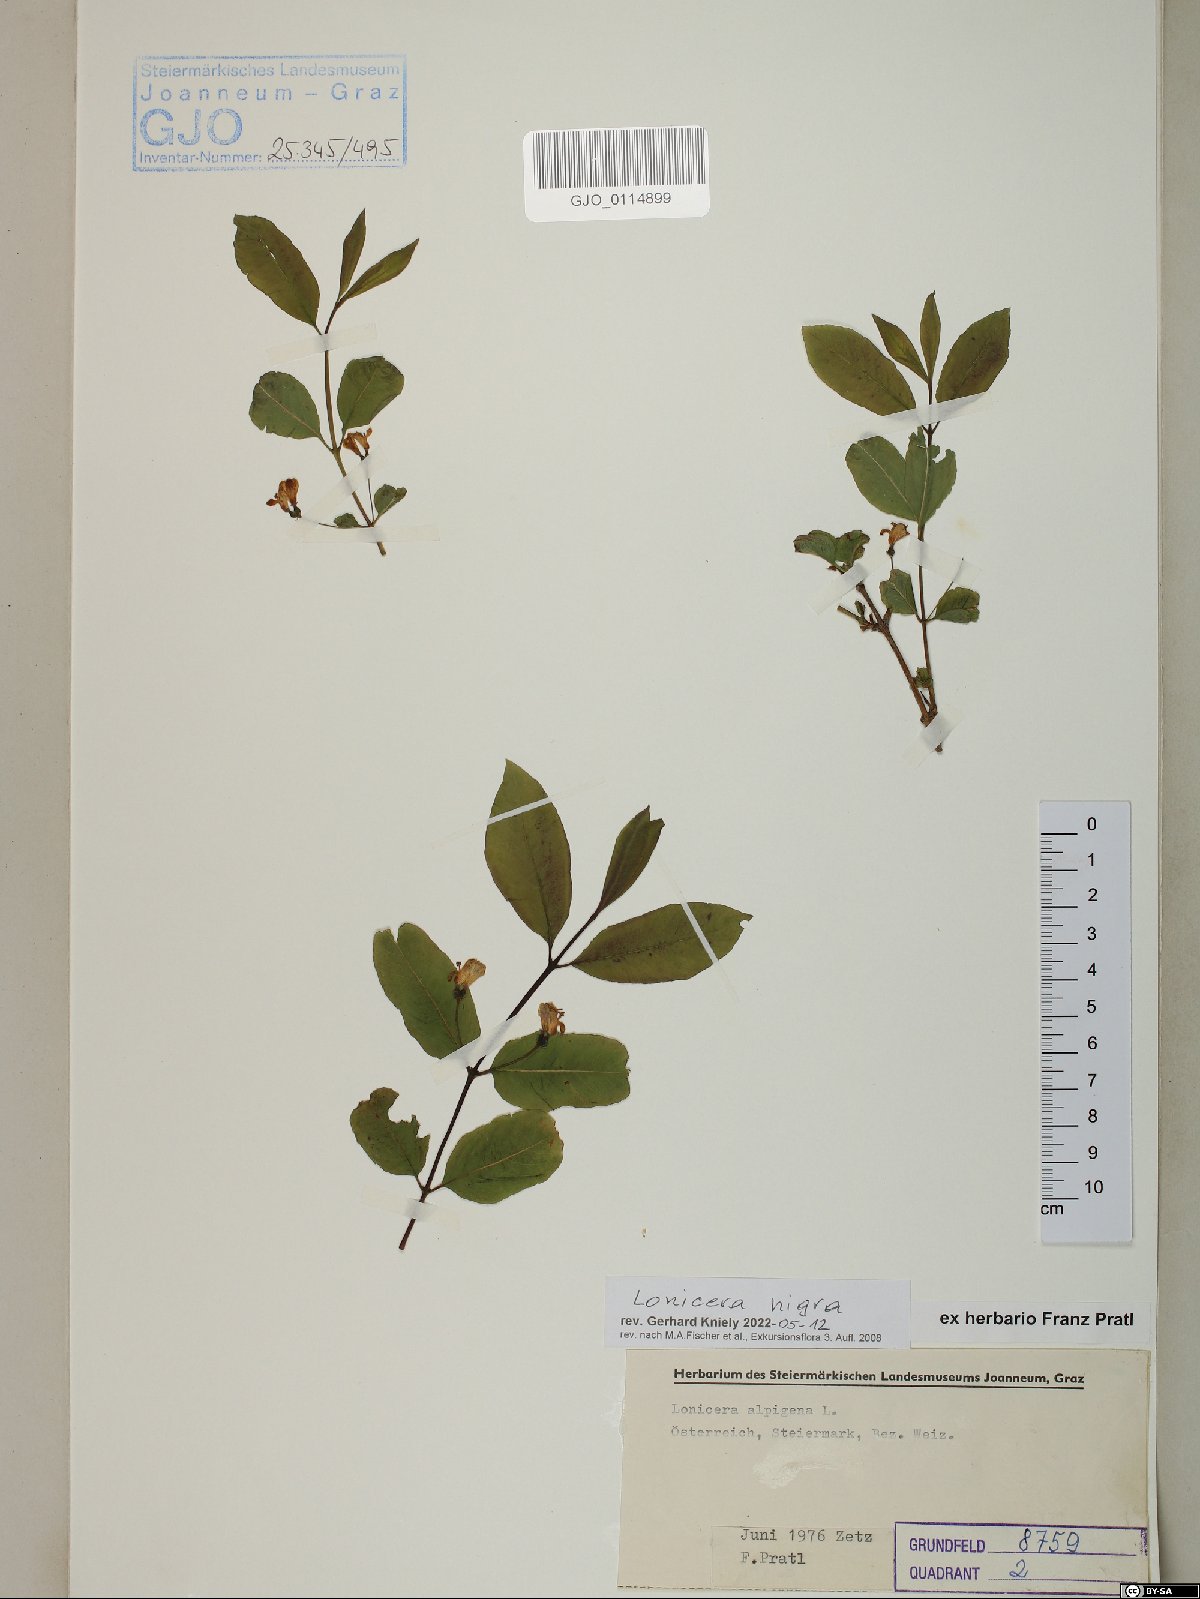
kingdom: Plantae
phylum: Tracheophyta
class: Magnoliopsida
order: Dipsacales
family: Caprifoliaceae
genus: Lonicera
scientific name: Lonicera nigra
